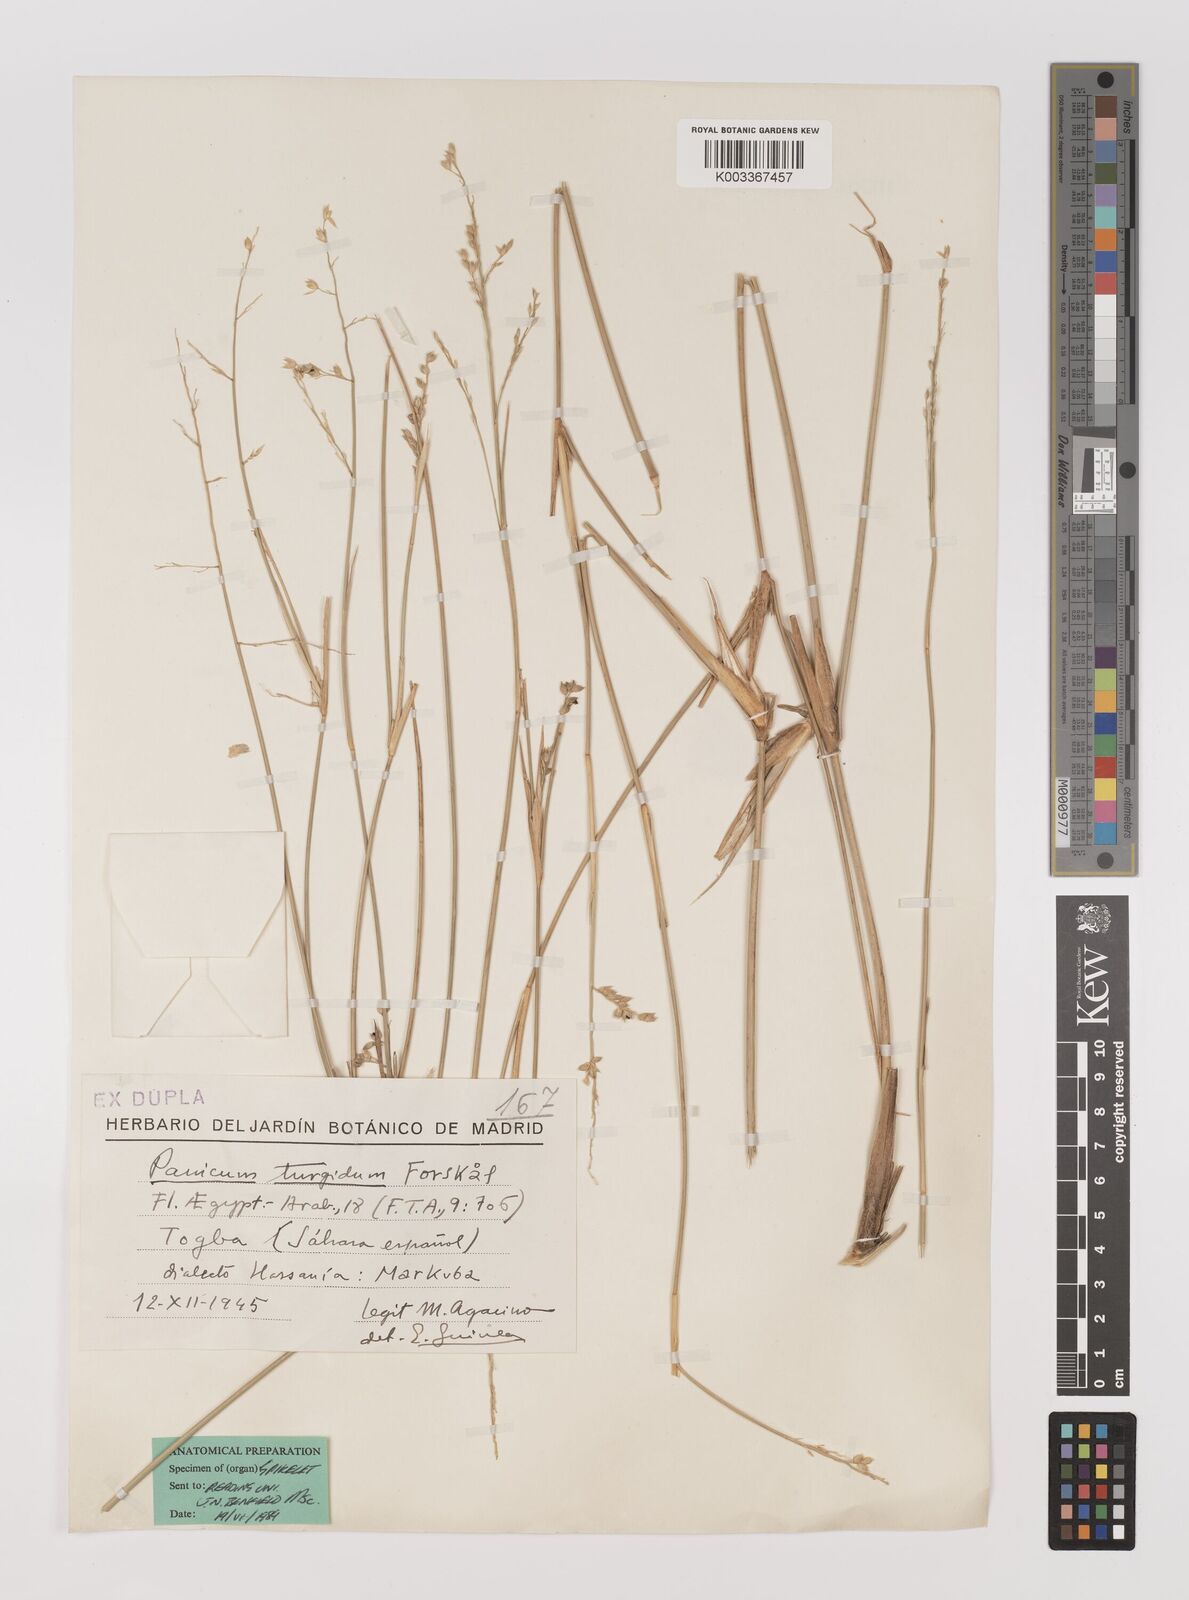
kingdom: Plantae
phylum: Tracheophyta
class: Liliopsida
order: Poales
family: Poaceae
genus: Panicum
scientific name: Panicum turgidum
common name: Desert grass
